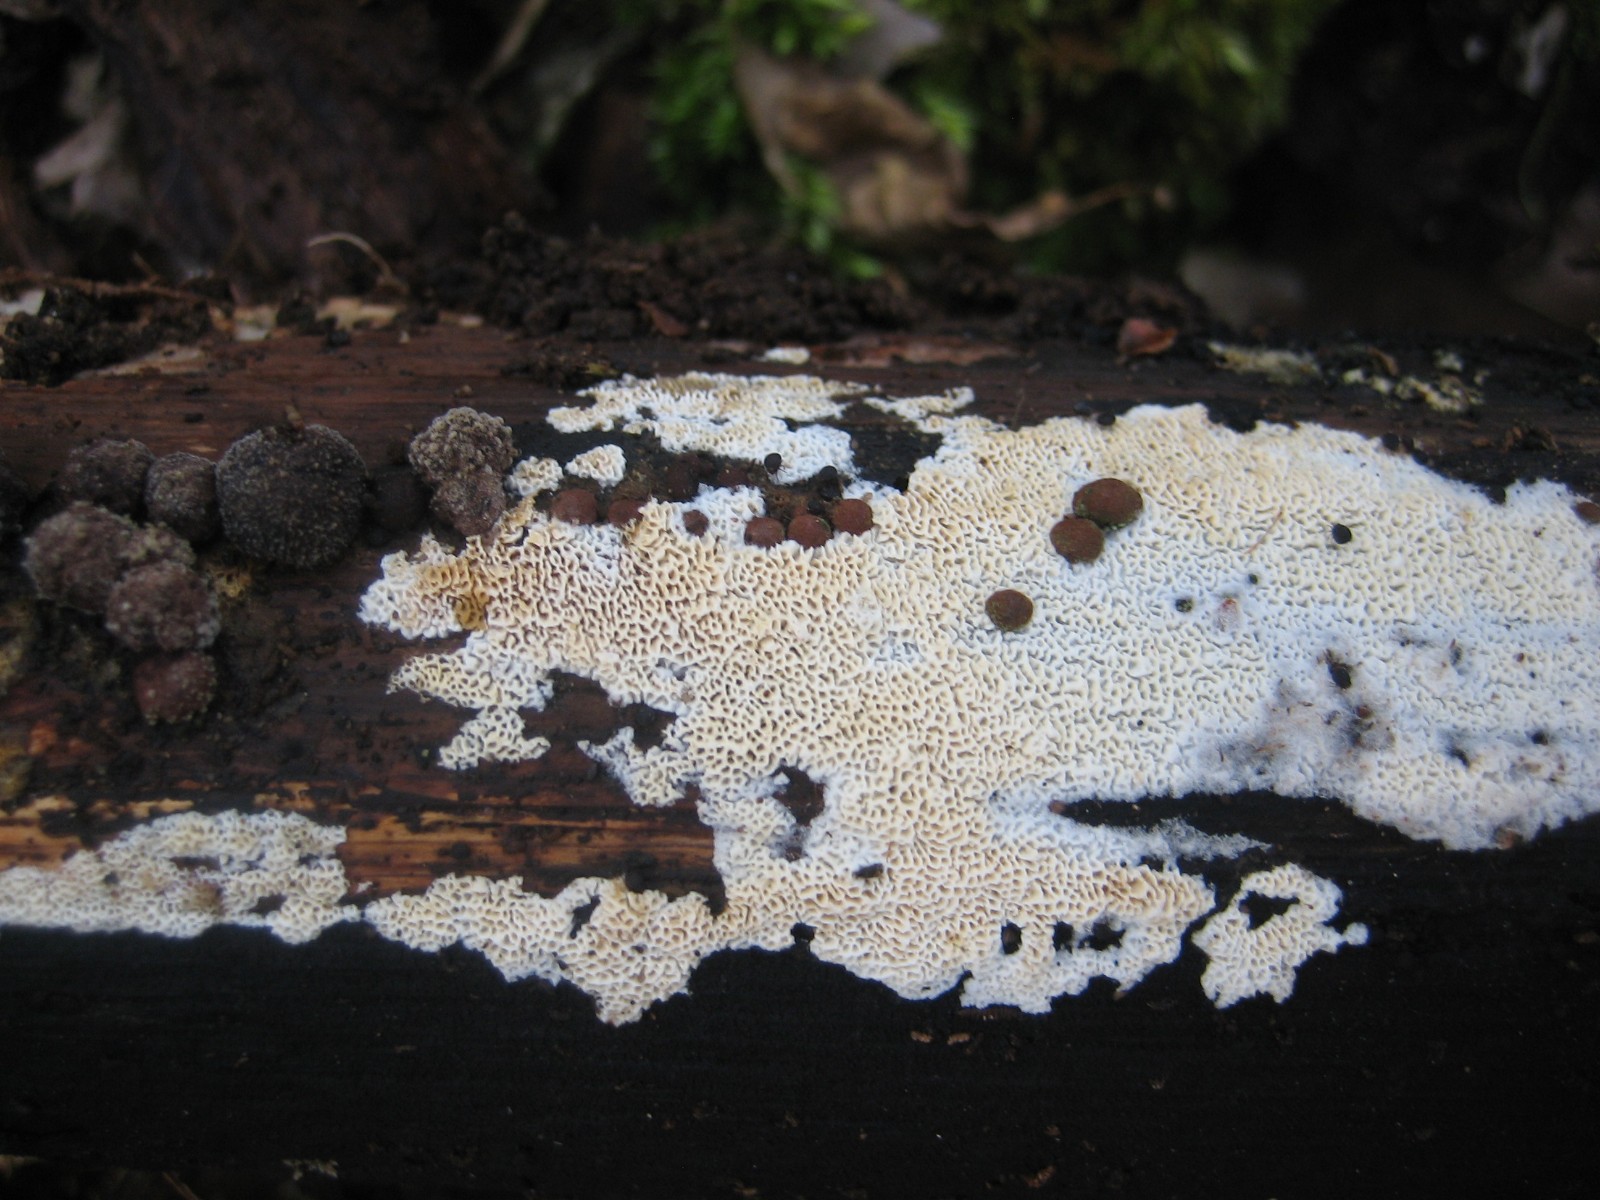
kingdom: Fungi
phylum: Basidiomycota
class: Agaricomycetes
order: Hymenochaetales
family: Schizoporaceae
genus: Xylodon
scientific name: Xylodon subtropicus
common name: labyrint-tandsvamp
